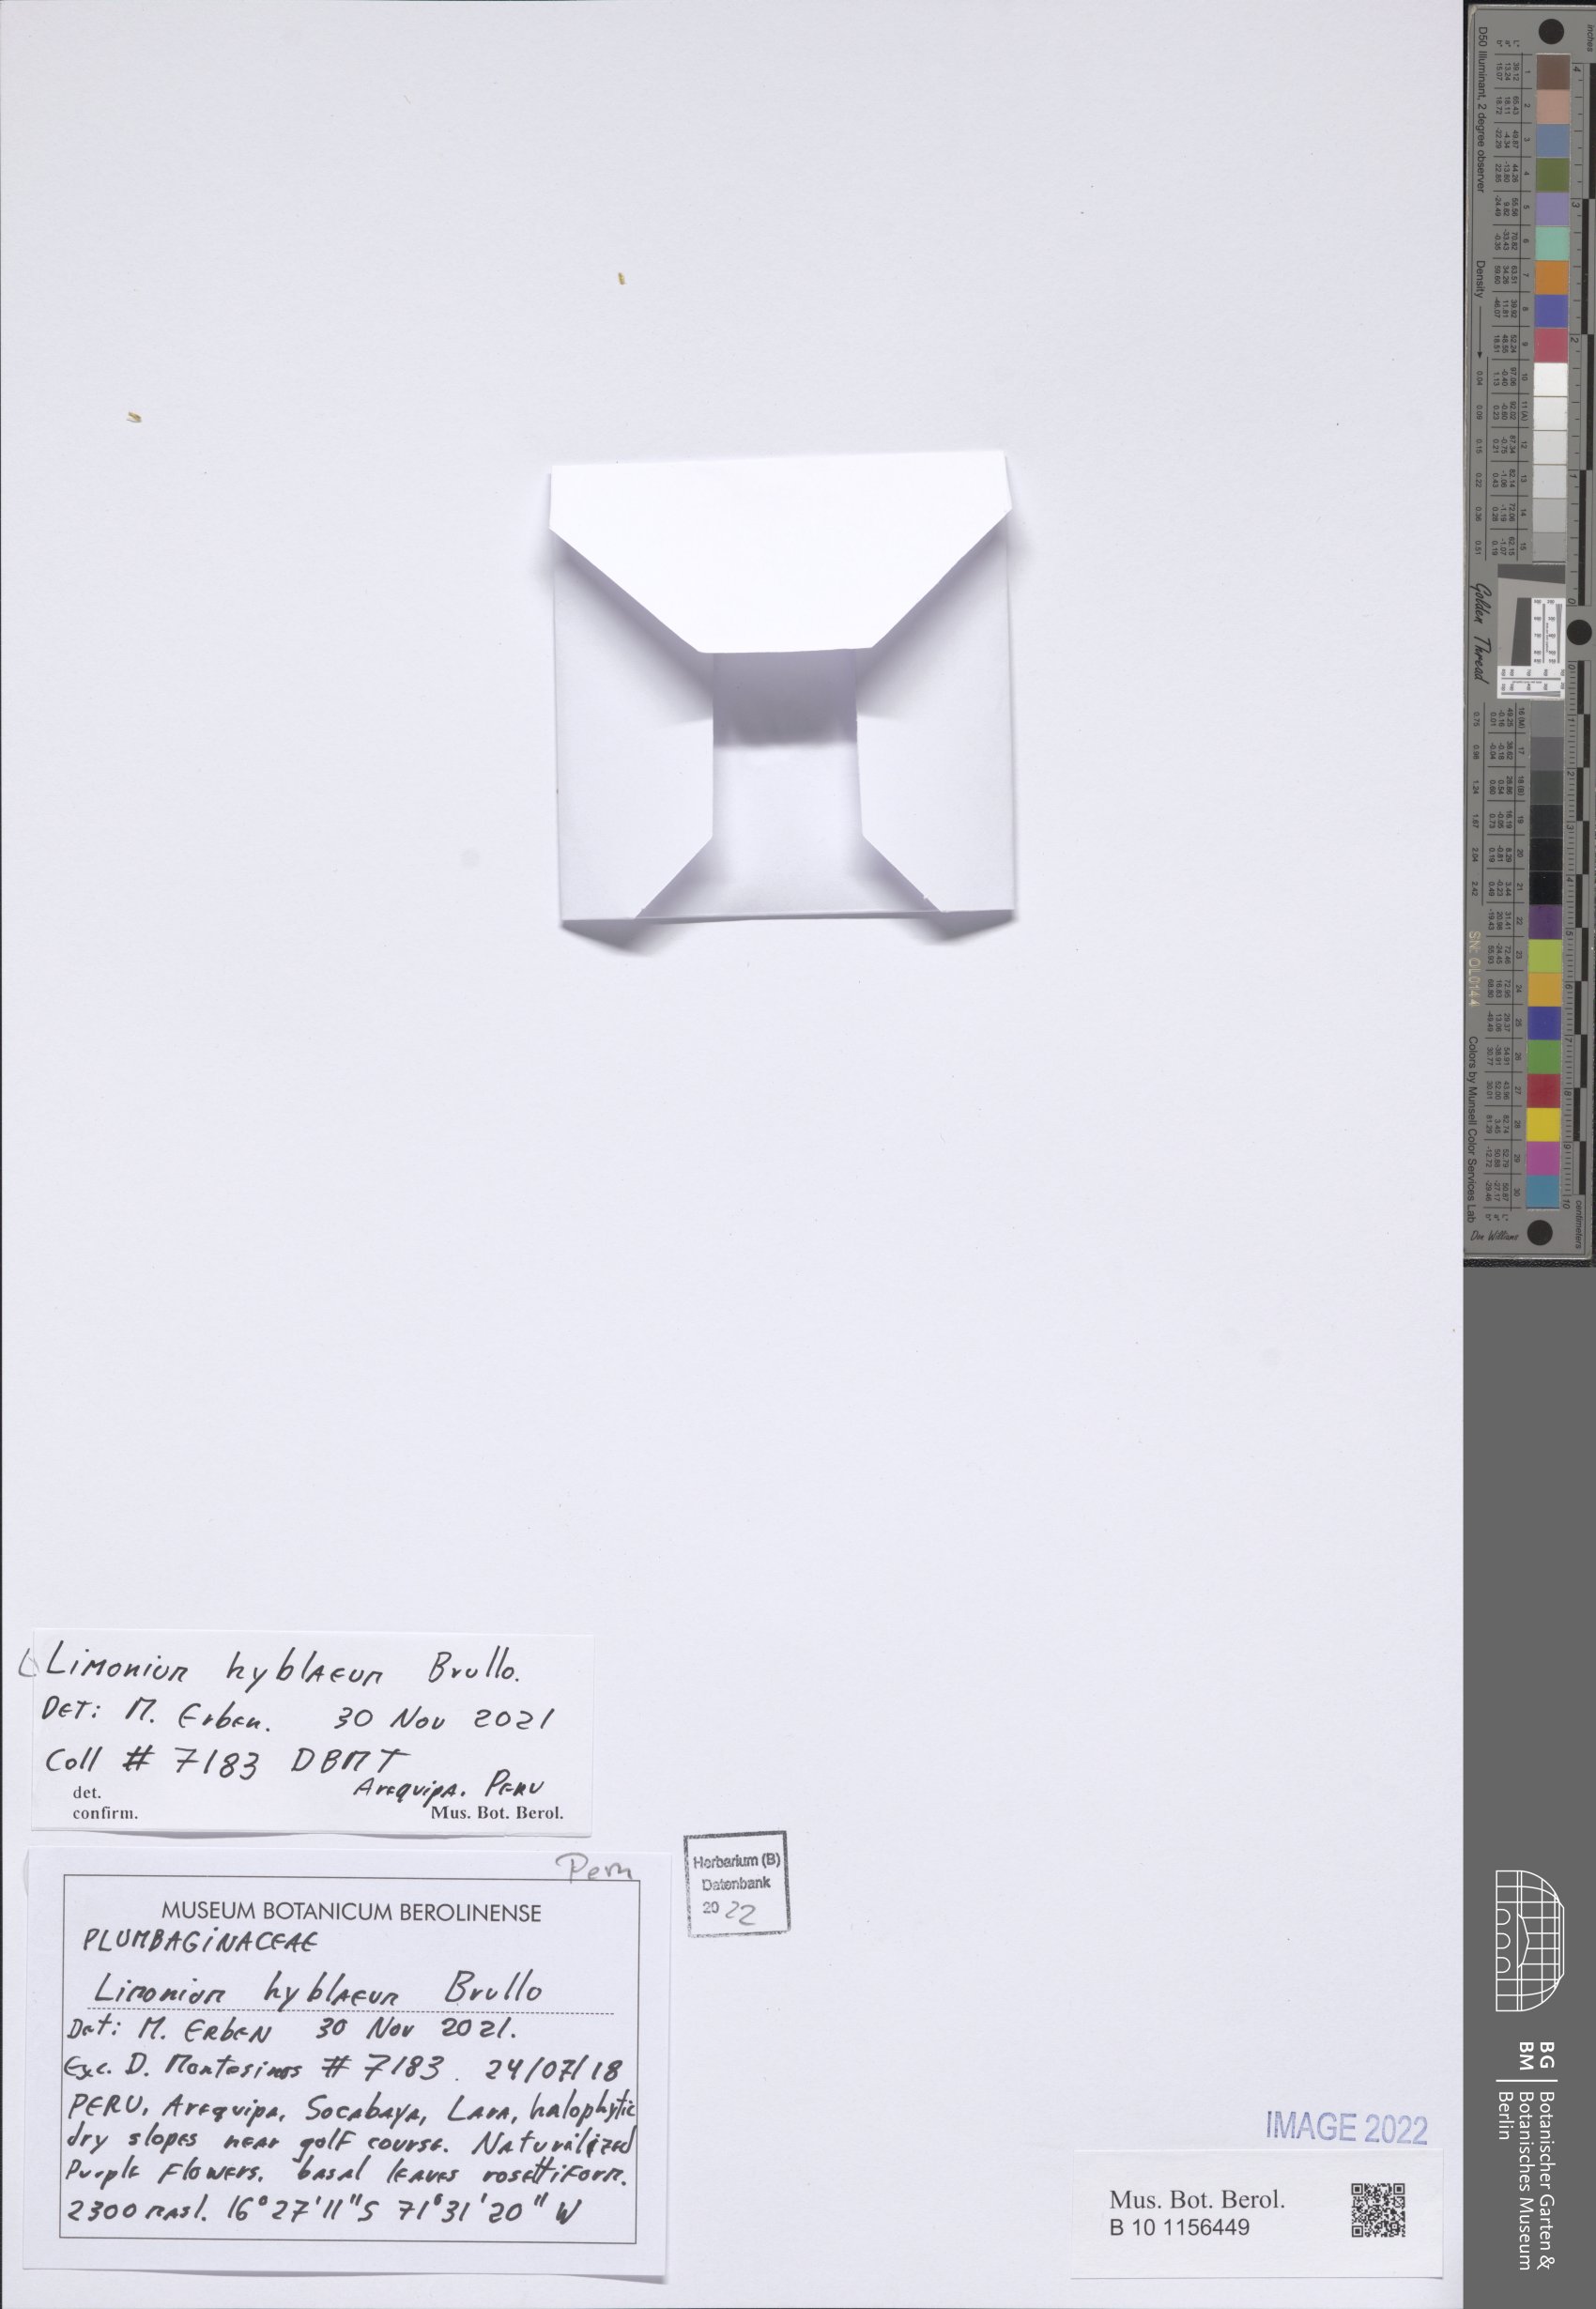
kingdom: Plantae
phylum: Tracheophyta
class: Magnoliopsida
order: Caryophyllales
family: Plumbaginaceae
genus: Limonium
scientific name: Limonium hyblaeum
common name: Rottingdean sea-lavender
